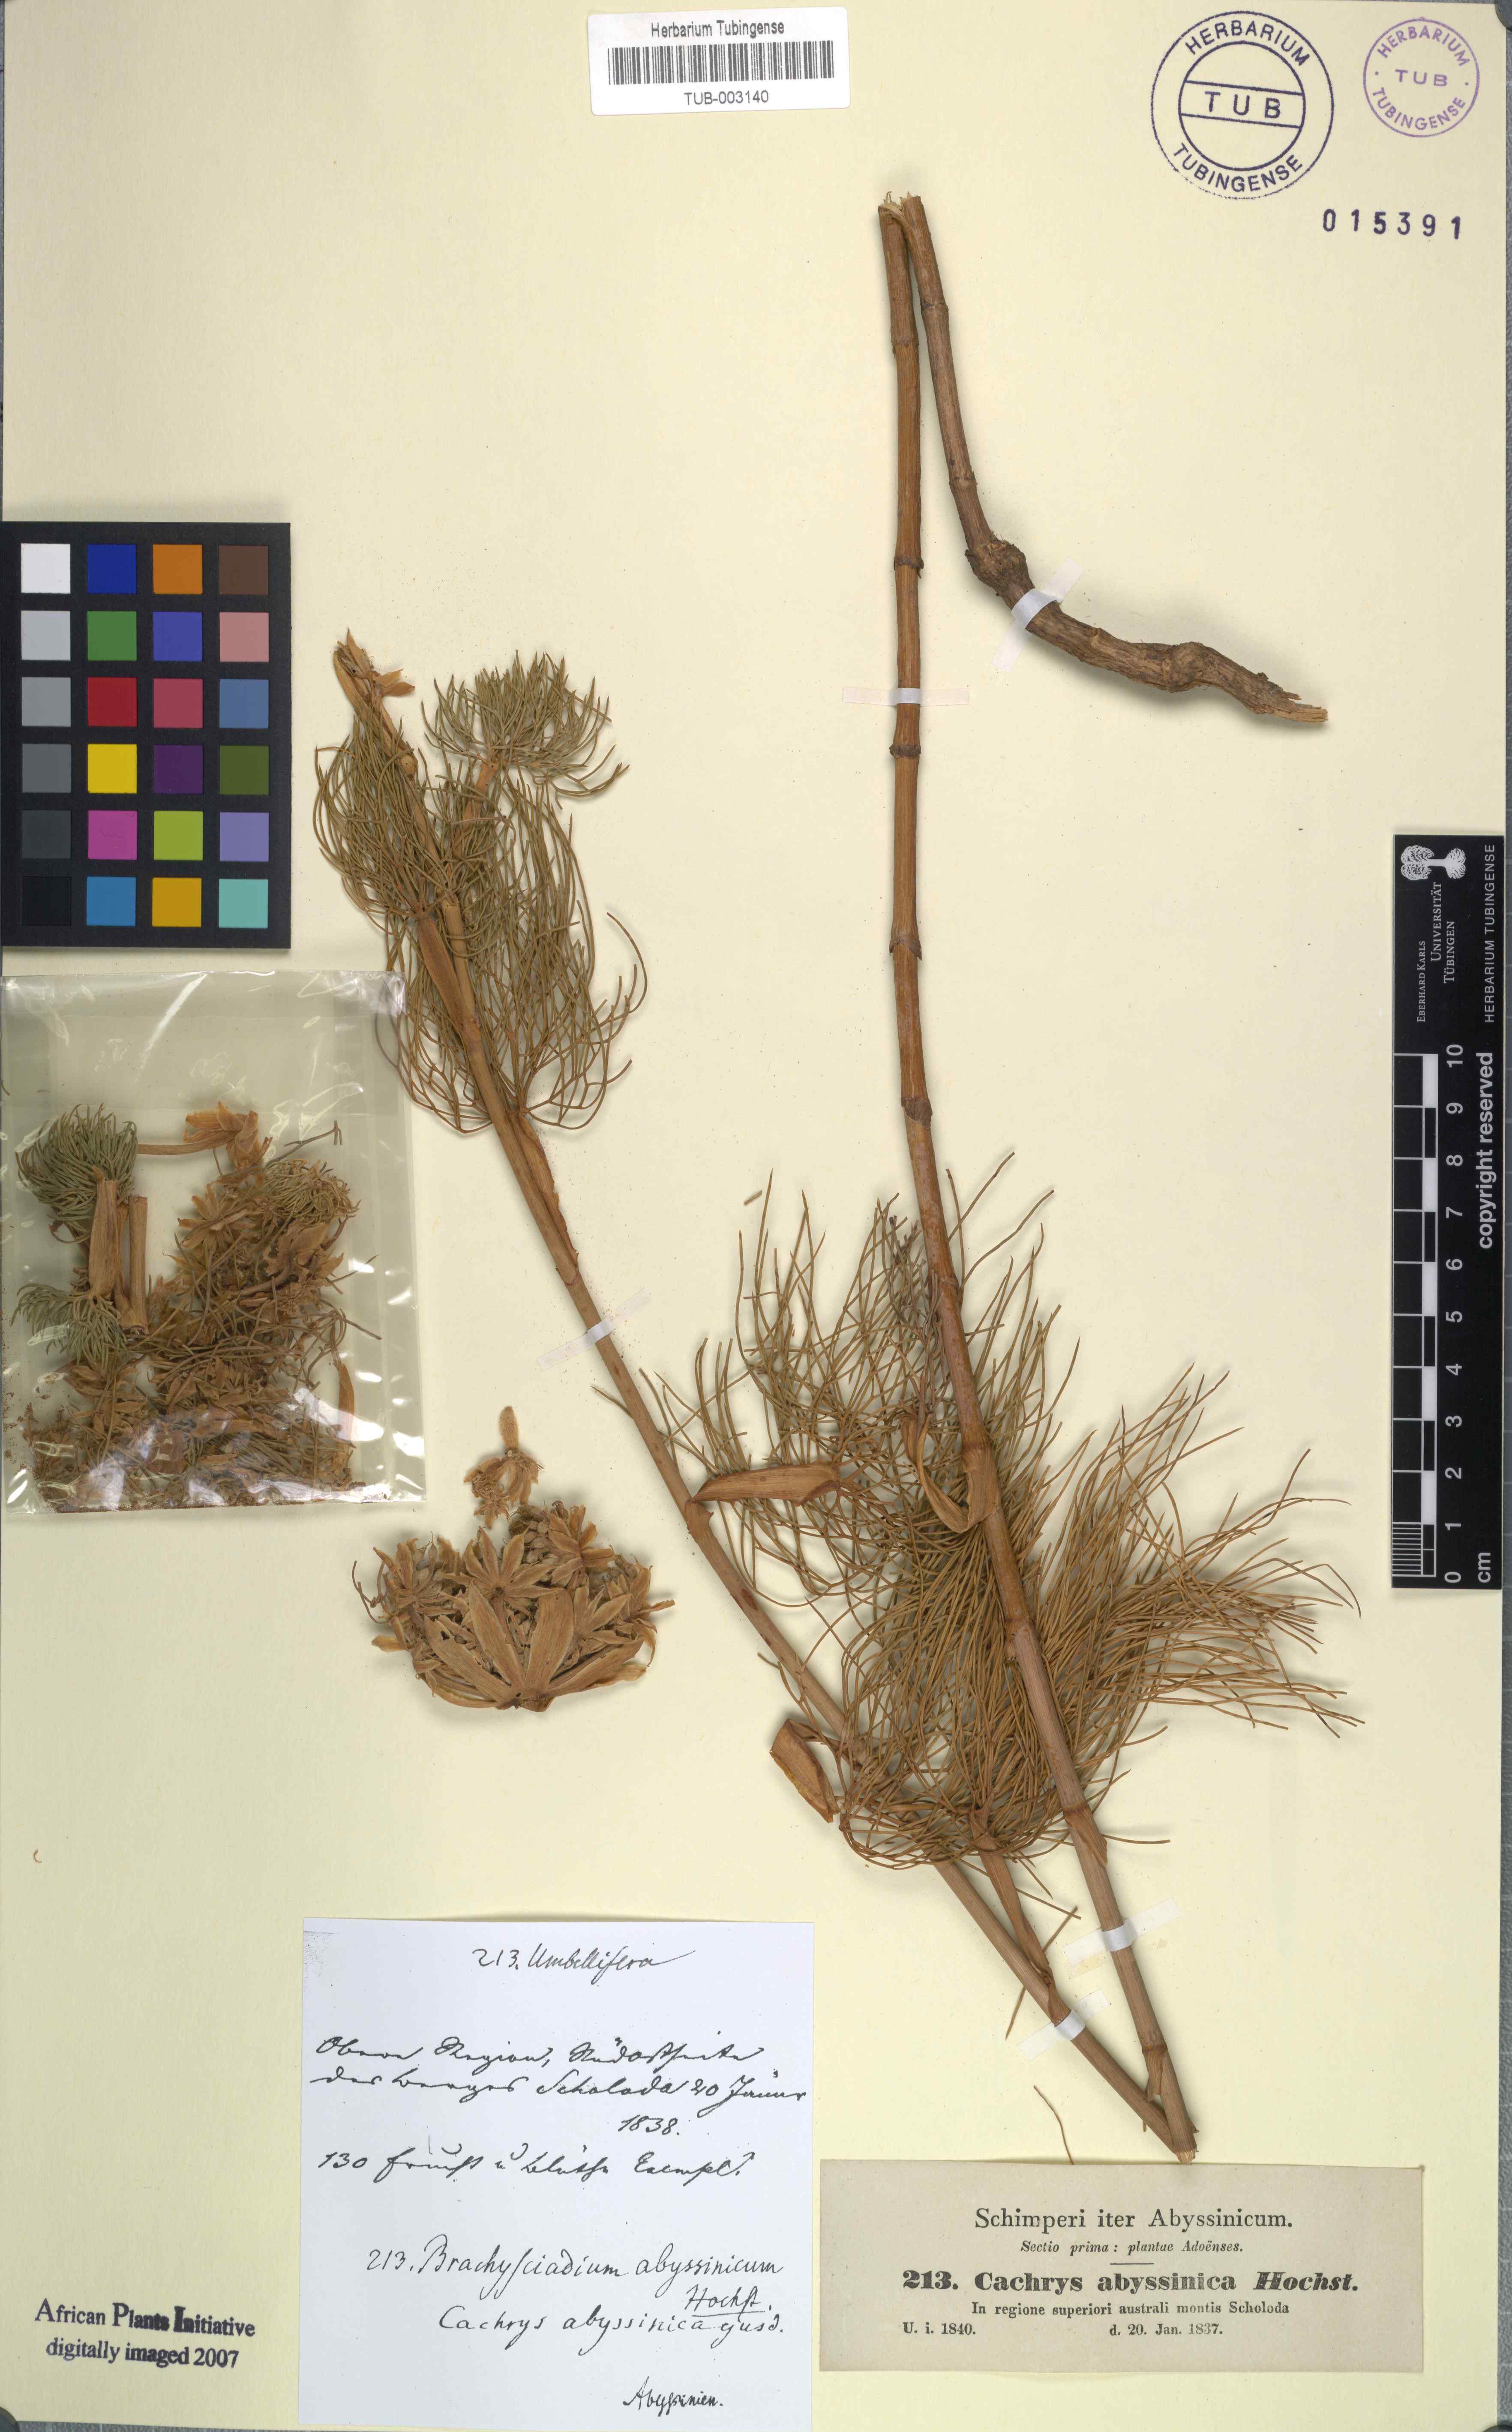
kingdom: Plantae
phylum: Tracheophyta
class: Magnoliopsida
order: Apiales
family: Apiaceae
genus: Diplolophium
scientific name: Diplolophium africanum
